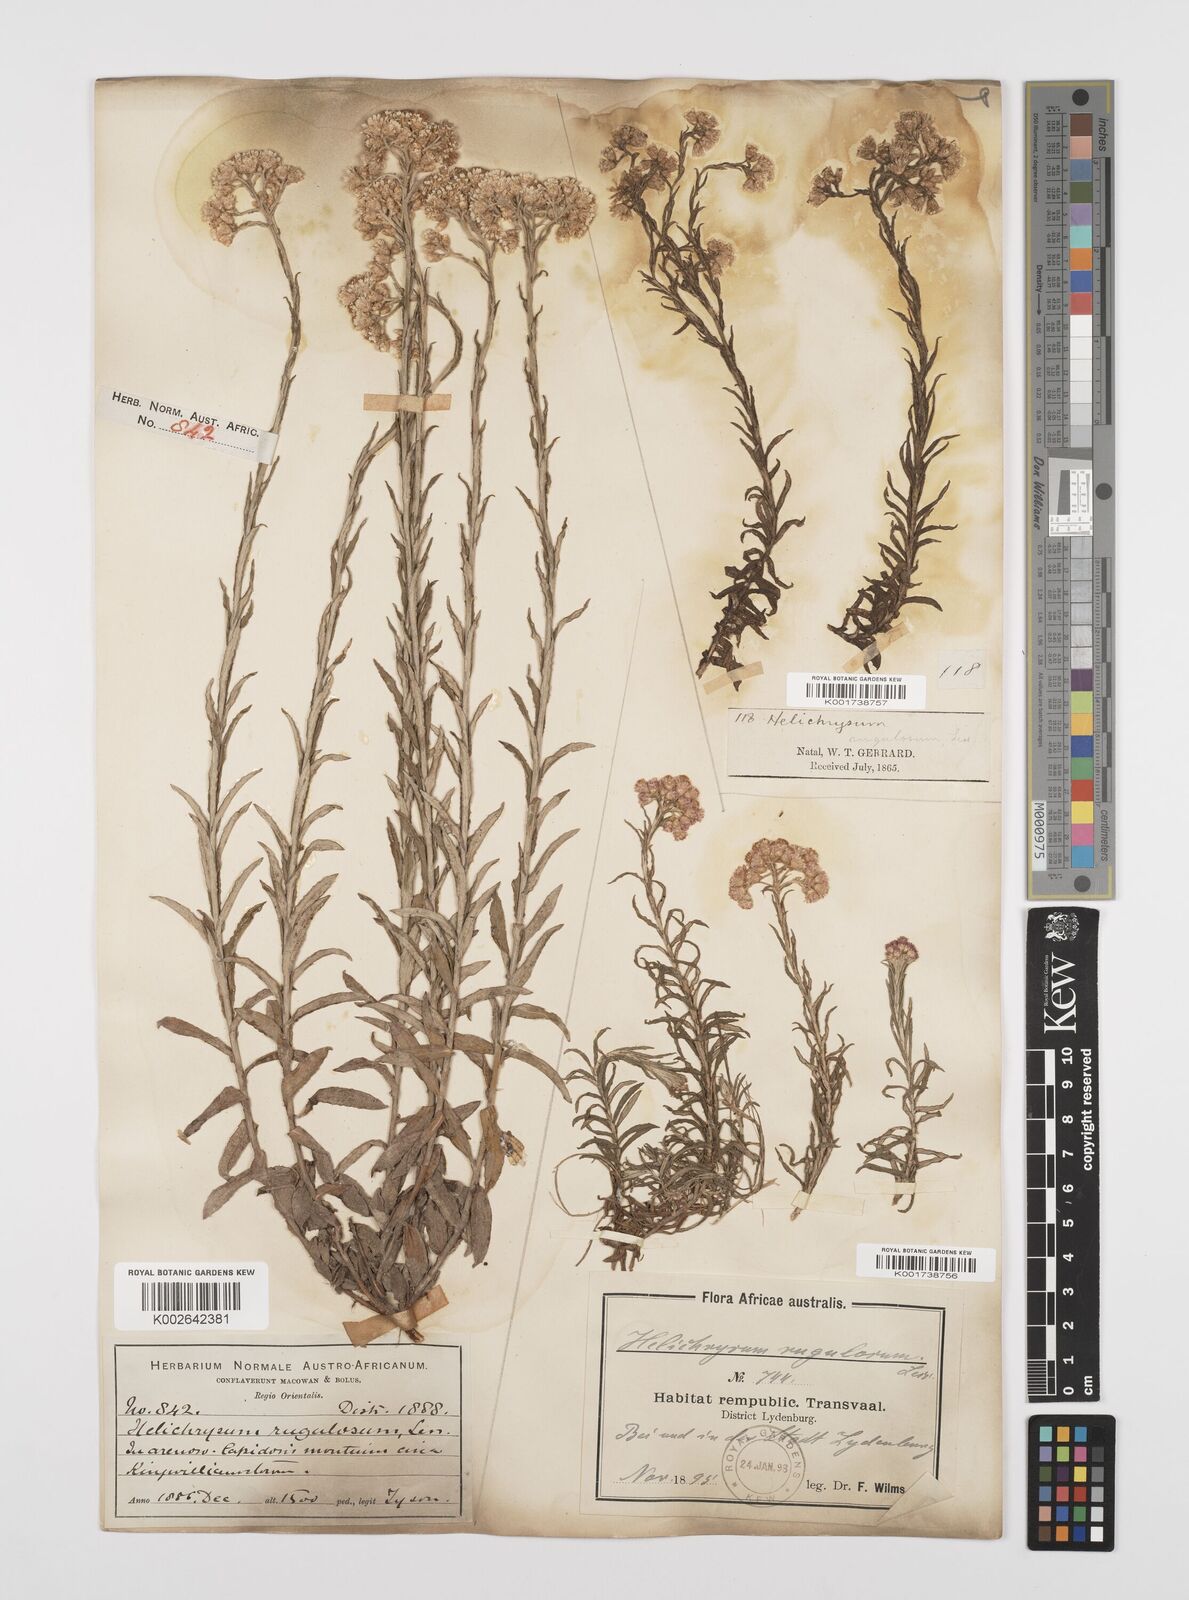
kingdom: Plantae
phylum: Tracheophyta
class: Magnoliopsida
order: Asterales
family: Asteraceae
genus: Helichrysum
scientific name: Helichrysum rugulosum
